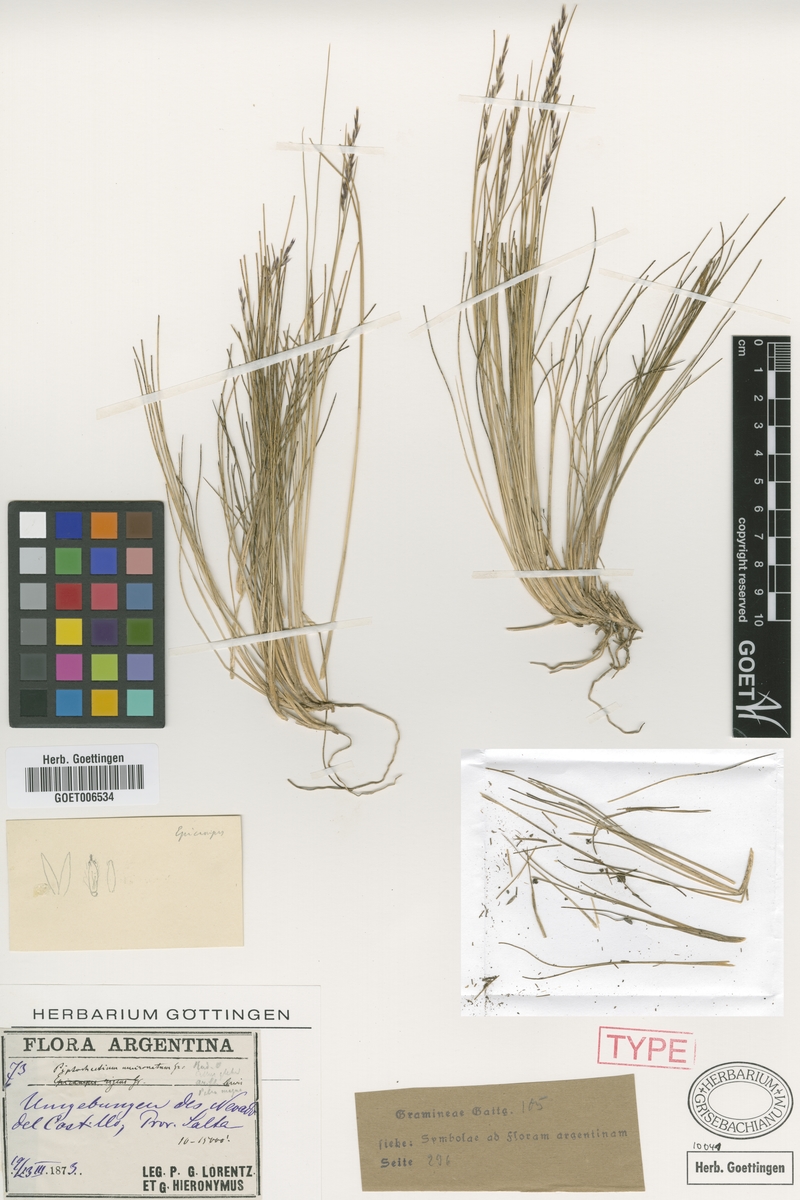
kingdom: Plantae
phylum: Tracheophyta
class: Liliopsida
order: Poales
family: Poaceae
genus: Nassella
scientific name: Nassella mucronata
